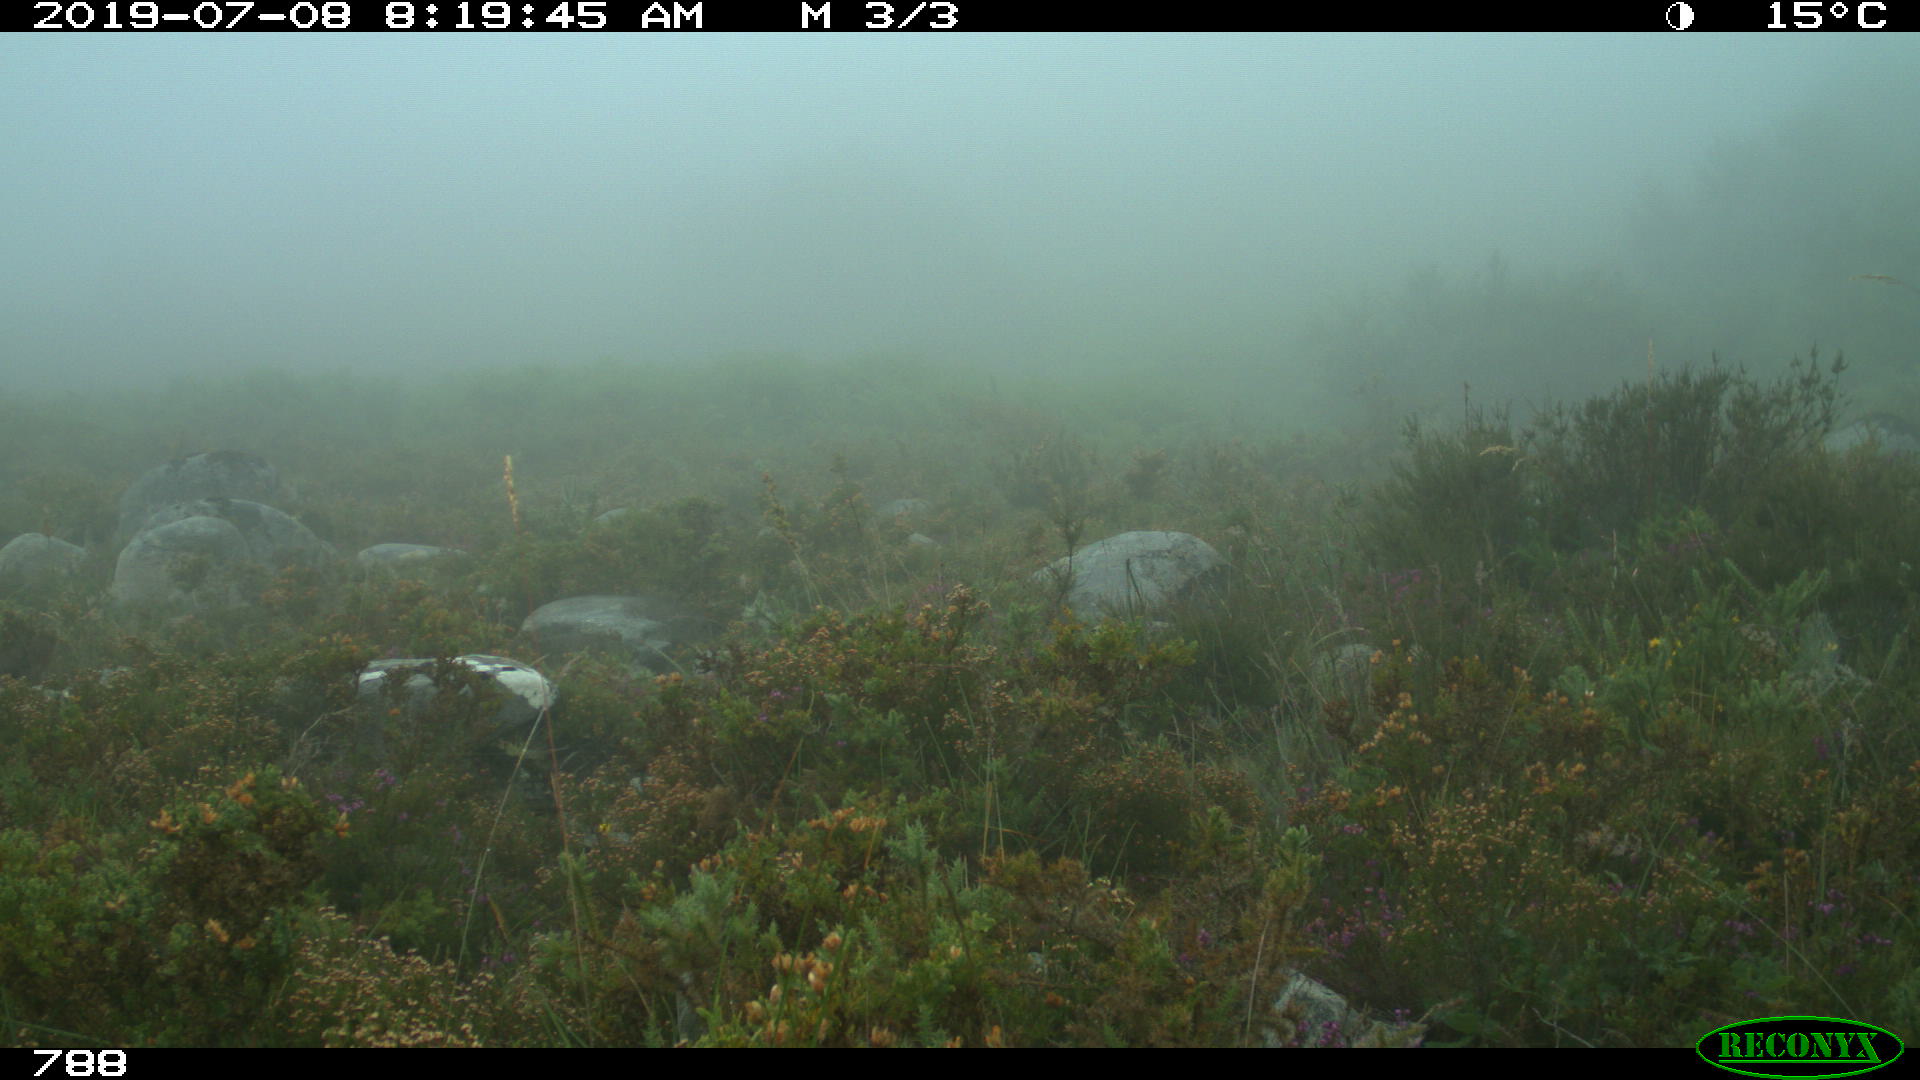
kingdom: Animalia
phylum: Chordata
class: Mammalia
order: Artiodactyla
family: Bovidae
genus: Bos
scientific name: Bos taurus
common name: Domesticated cattle
